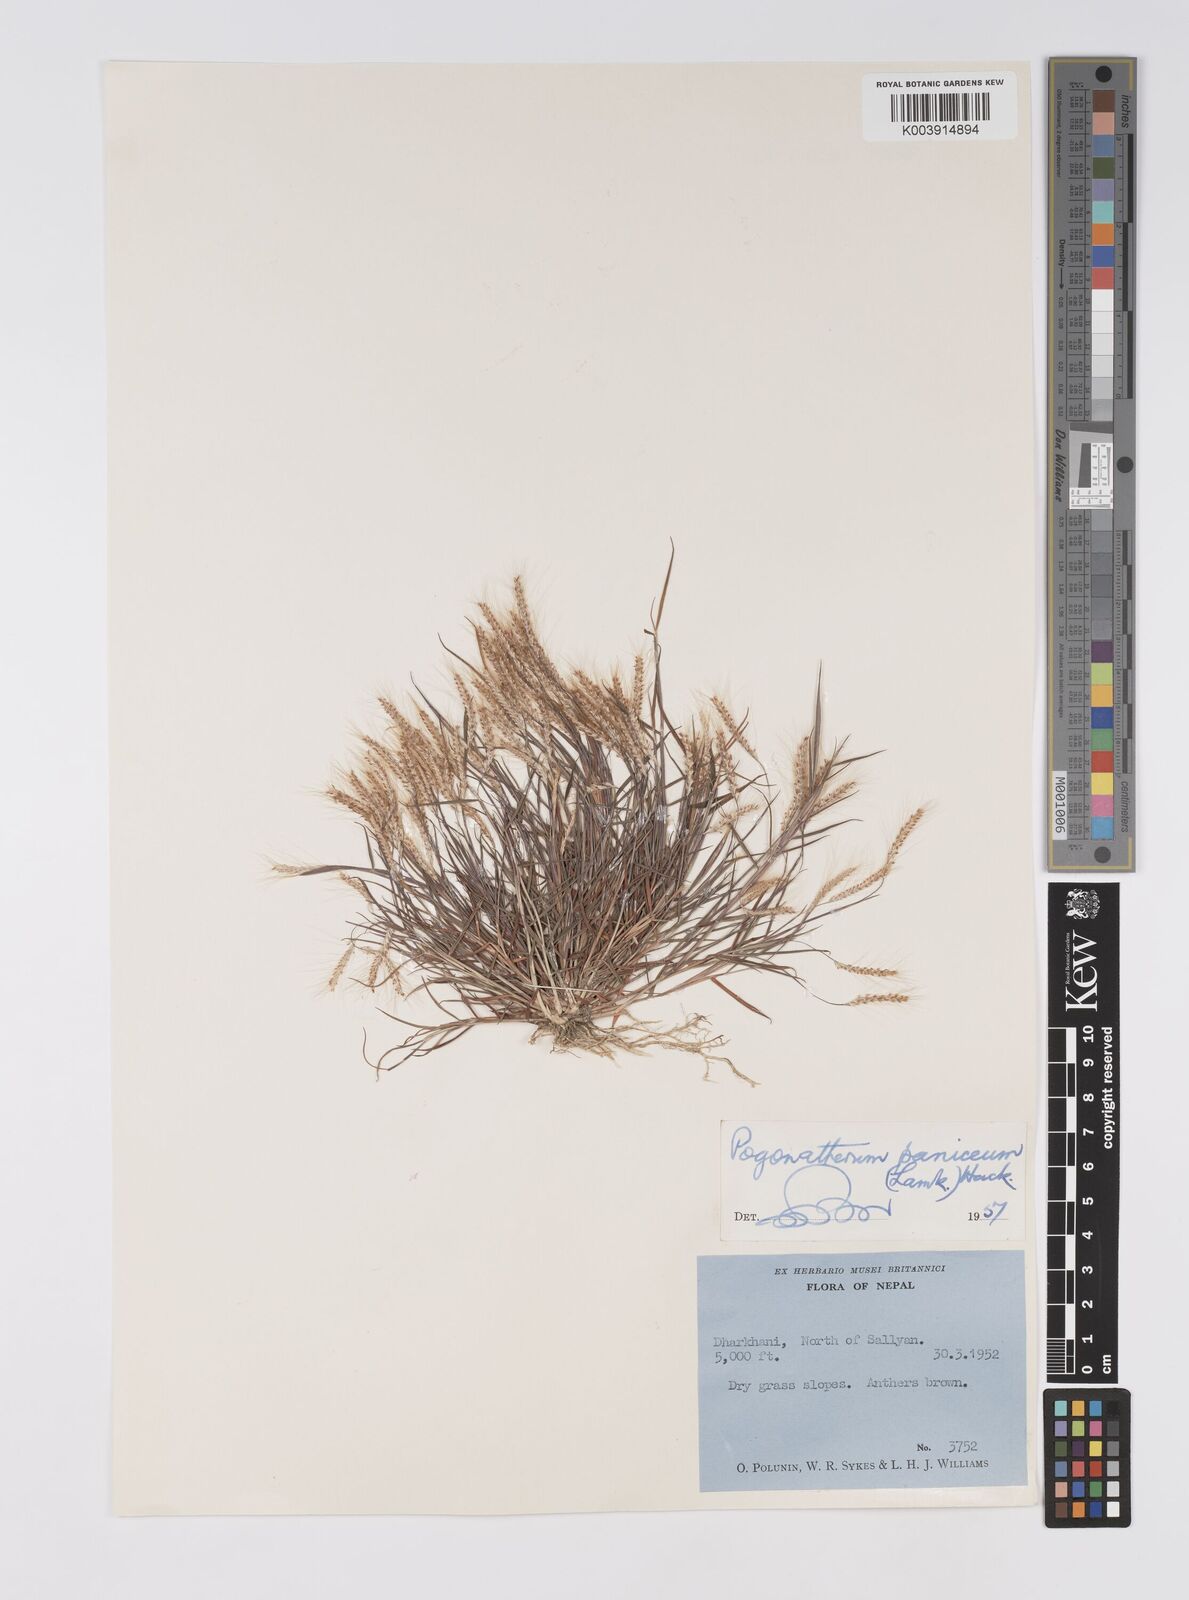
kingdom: Plantae
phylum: Tracheophyta
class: Liliopsida
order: Poales
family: Poaceae
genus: Pogonatherum
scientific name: Pogonatherum paniceum
